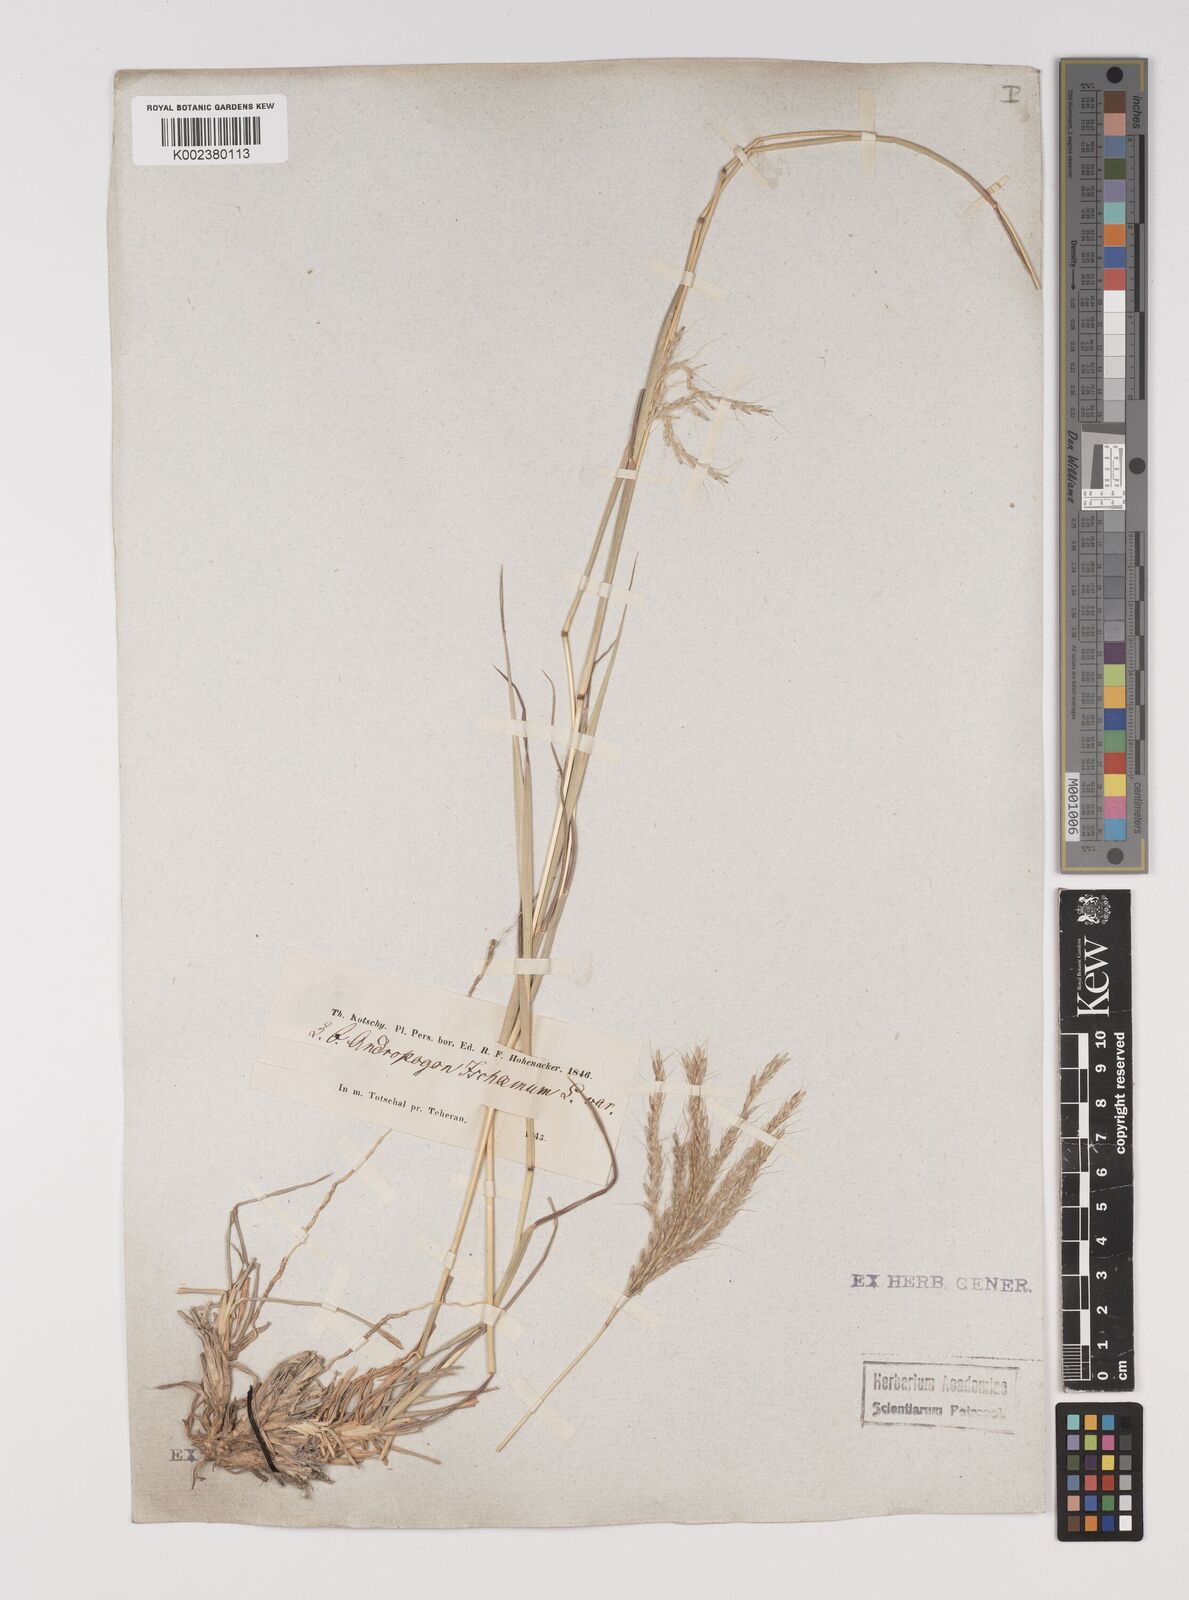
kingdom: Plantae
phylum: Tracheophyta
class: Liliopsida
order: Poales
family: Poaceae
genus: Bothriochloa
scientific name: Bothriochloa ischaemum
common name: Yellow bluestem
